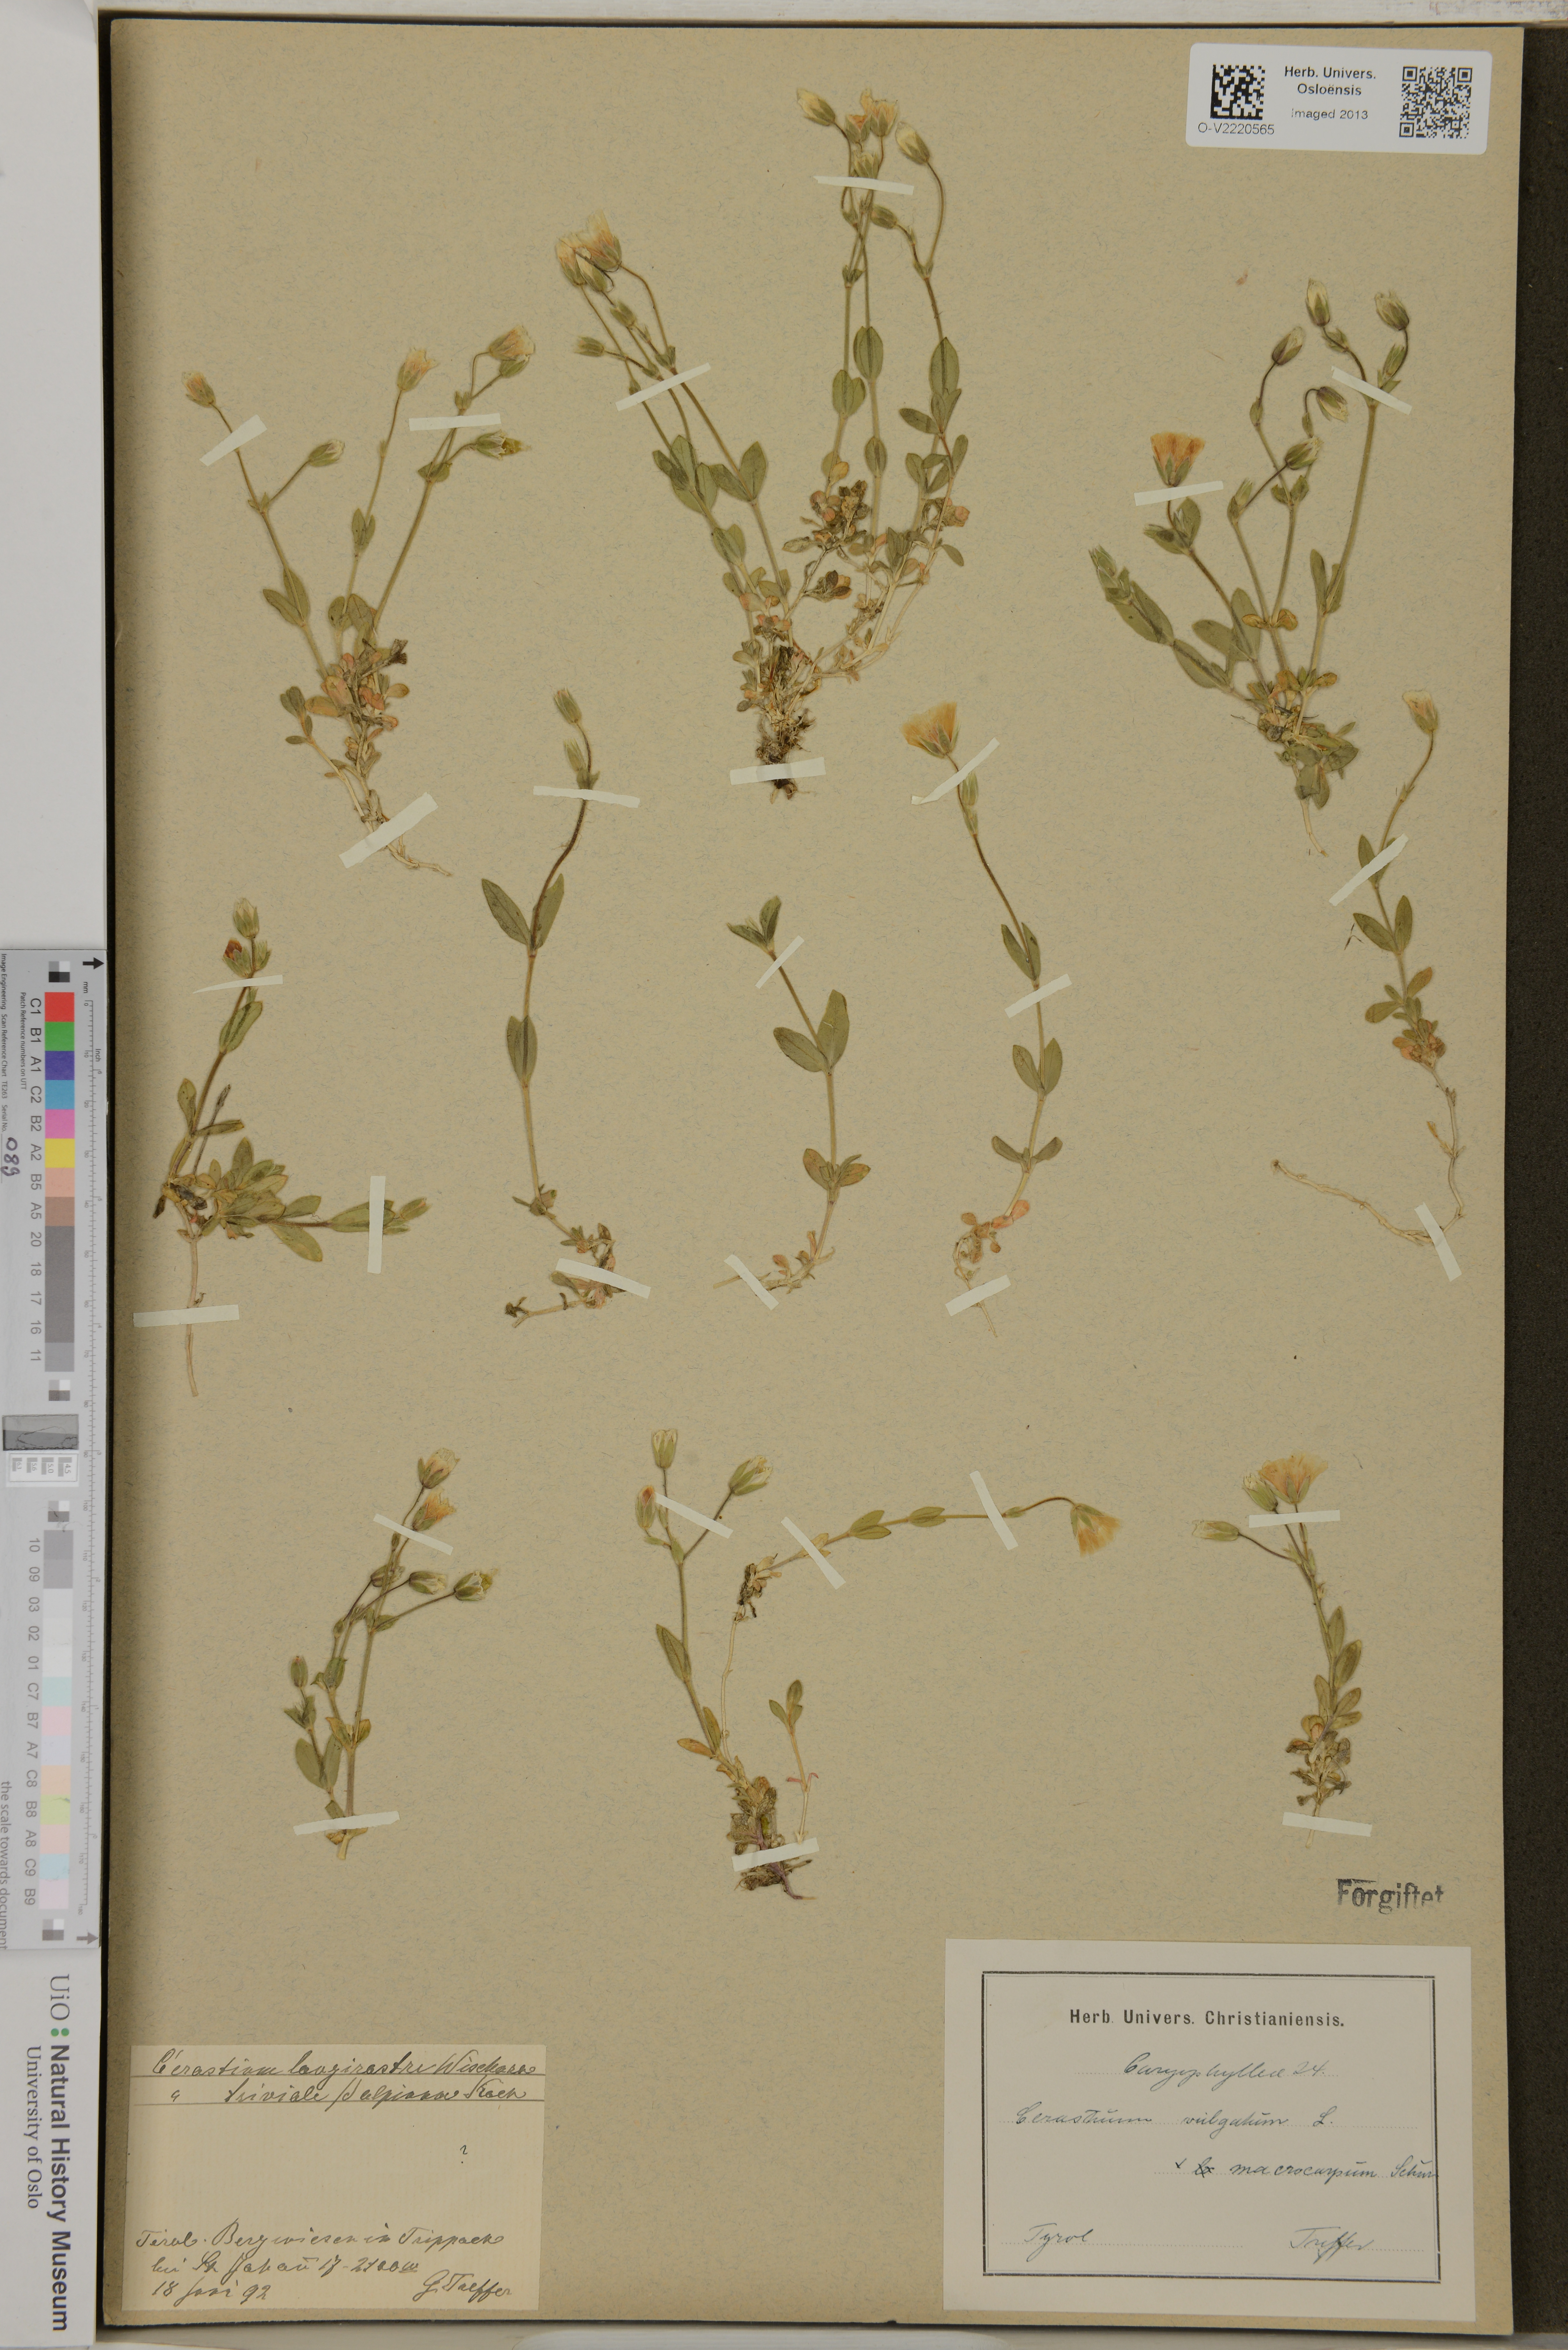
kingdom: Plantae
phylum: Tracheophyta
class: Magnoliopsida
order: Caryophyllales
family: Caryophyllaceae
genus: Cerastium
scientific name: Cerastium fontanum
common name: Common mouse-ear
